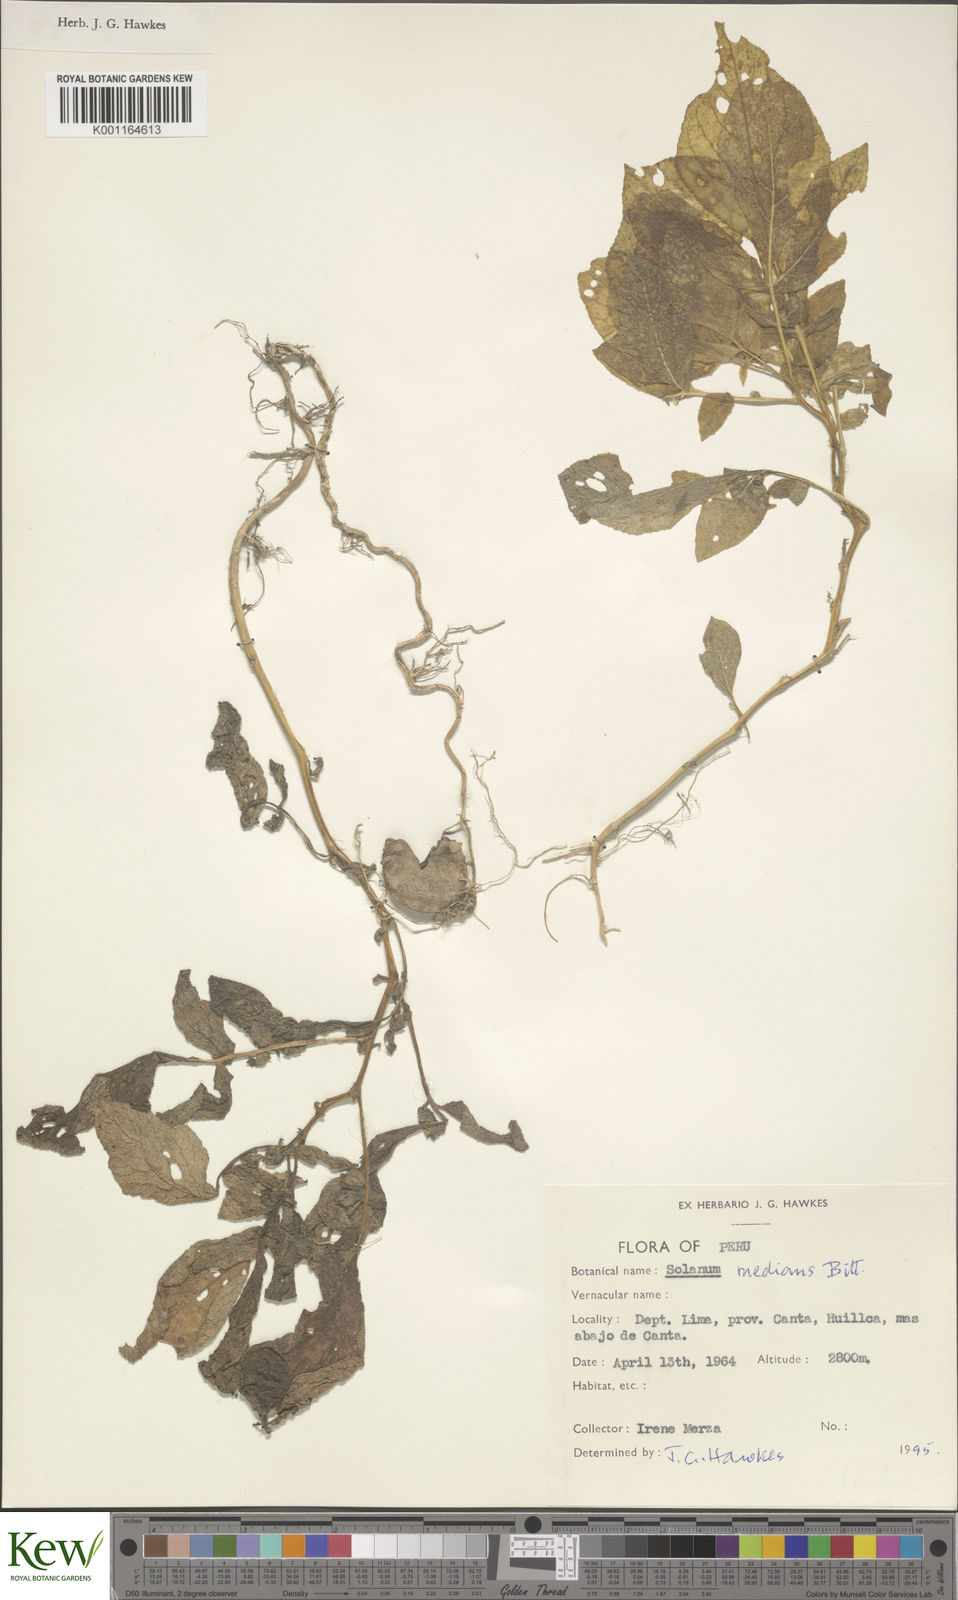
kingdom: Plantae
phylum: Tracheophyta
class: Magnoliopsida
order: Solanales
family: Solanaceae
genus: Solanum
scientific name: Solanum medians
